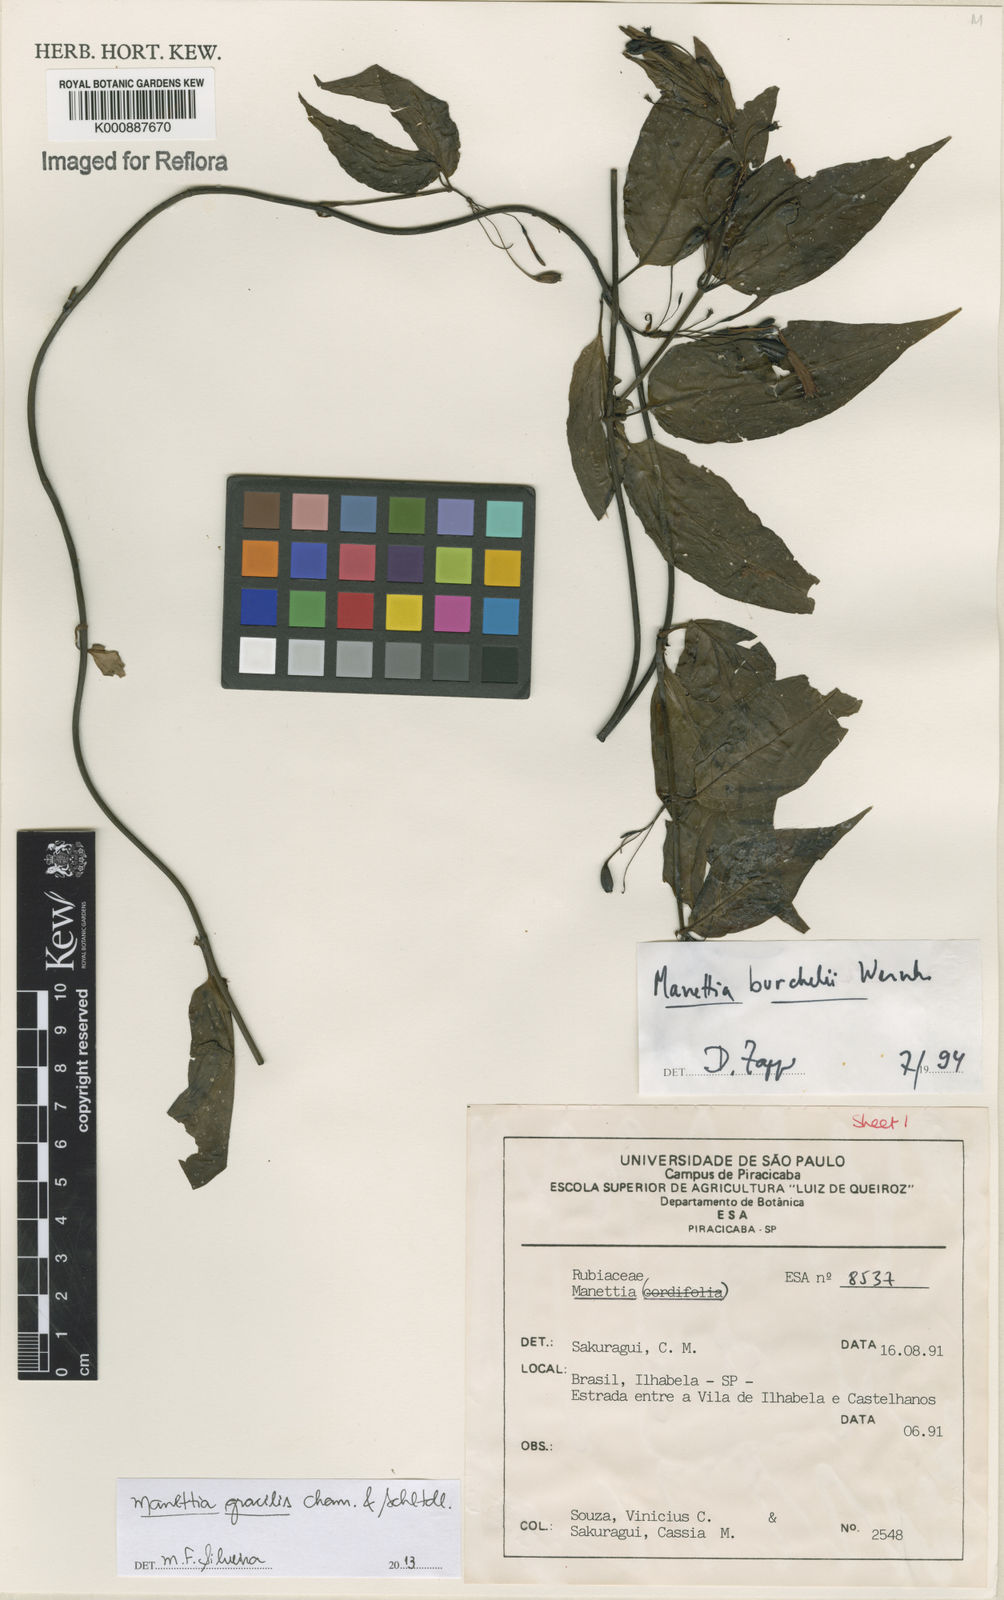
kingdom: Plantae
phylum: Tracheophyta
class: Magnoliopsida
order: Gentianales
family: Rubiaceae
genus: Manettia
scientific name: Manettia gracilis
